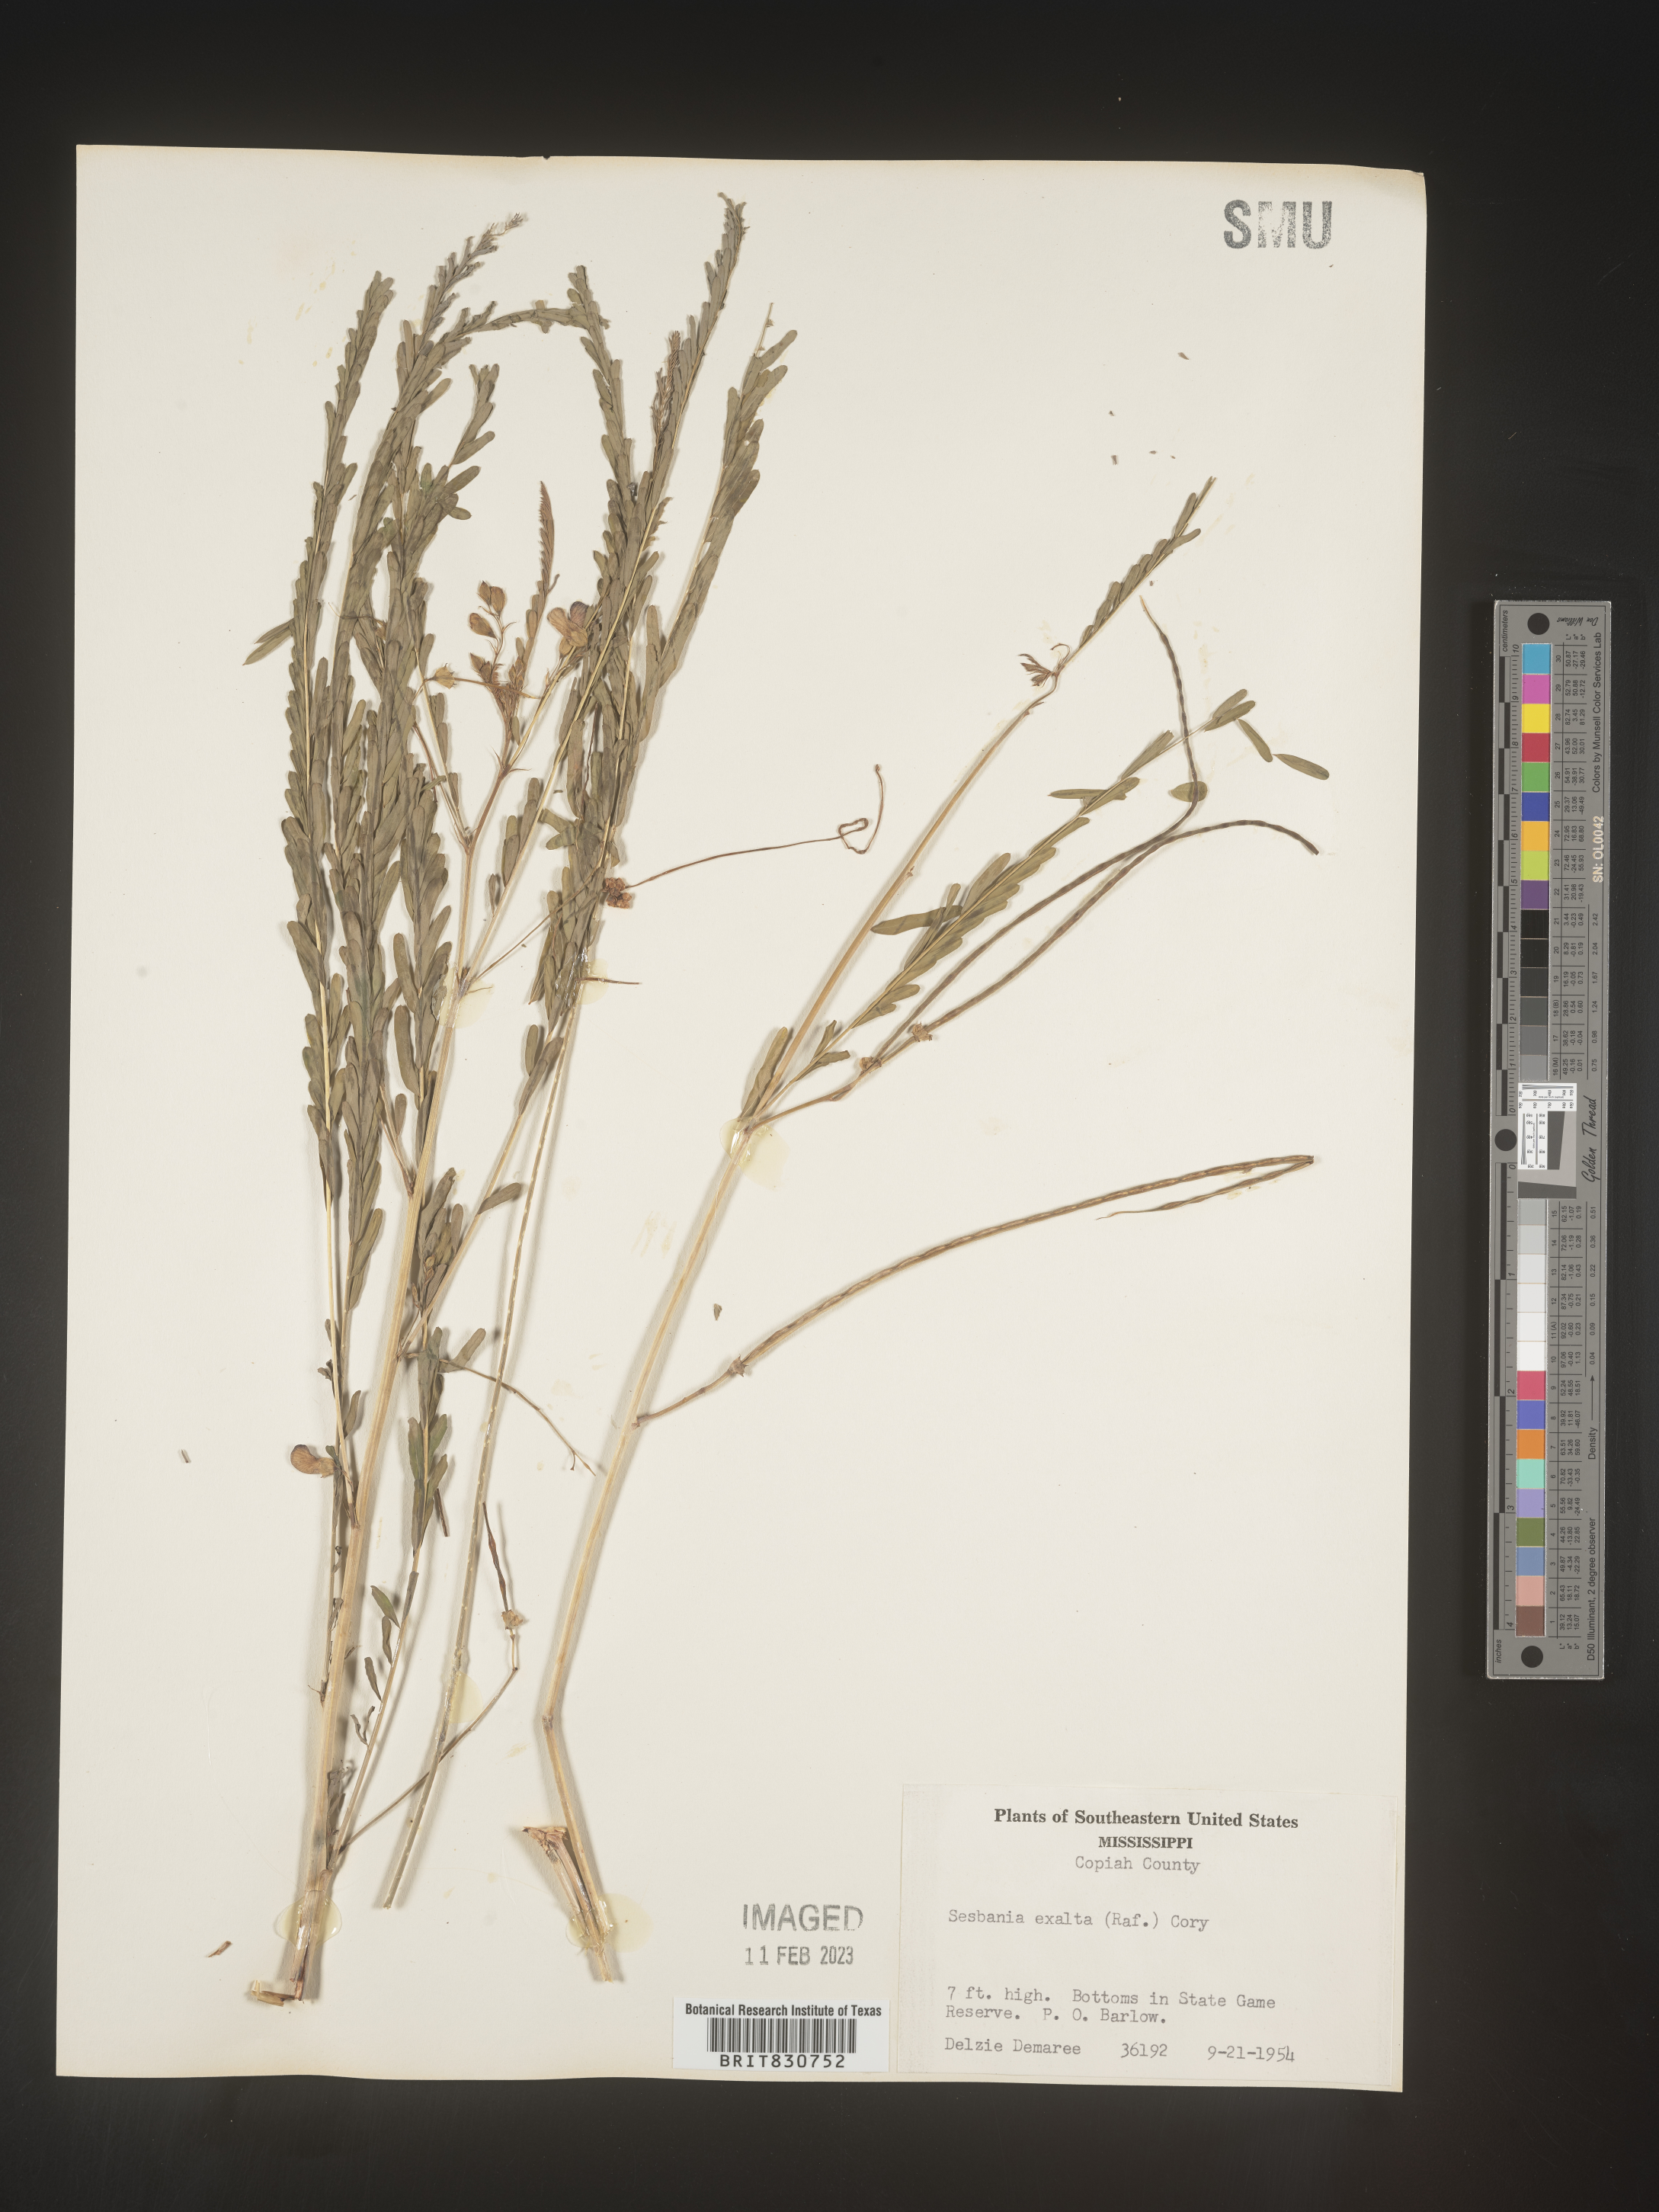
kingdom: Plantae
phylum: Tracheophyta
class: Magnoliopsida
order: Fabales
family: Fabaceae
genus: Sesbania
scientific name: Sesbania vesicaria
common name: Bagpod
